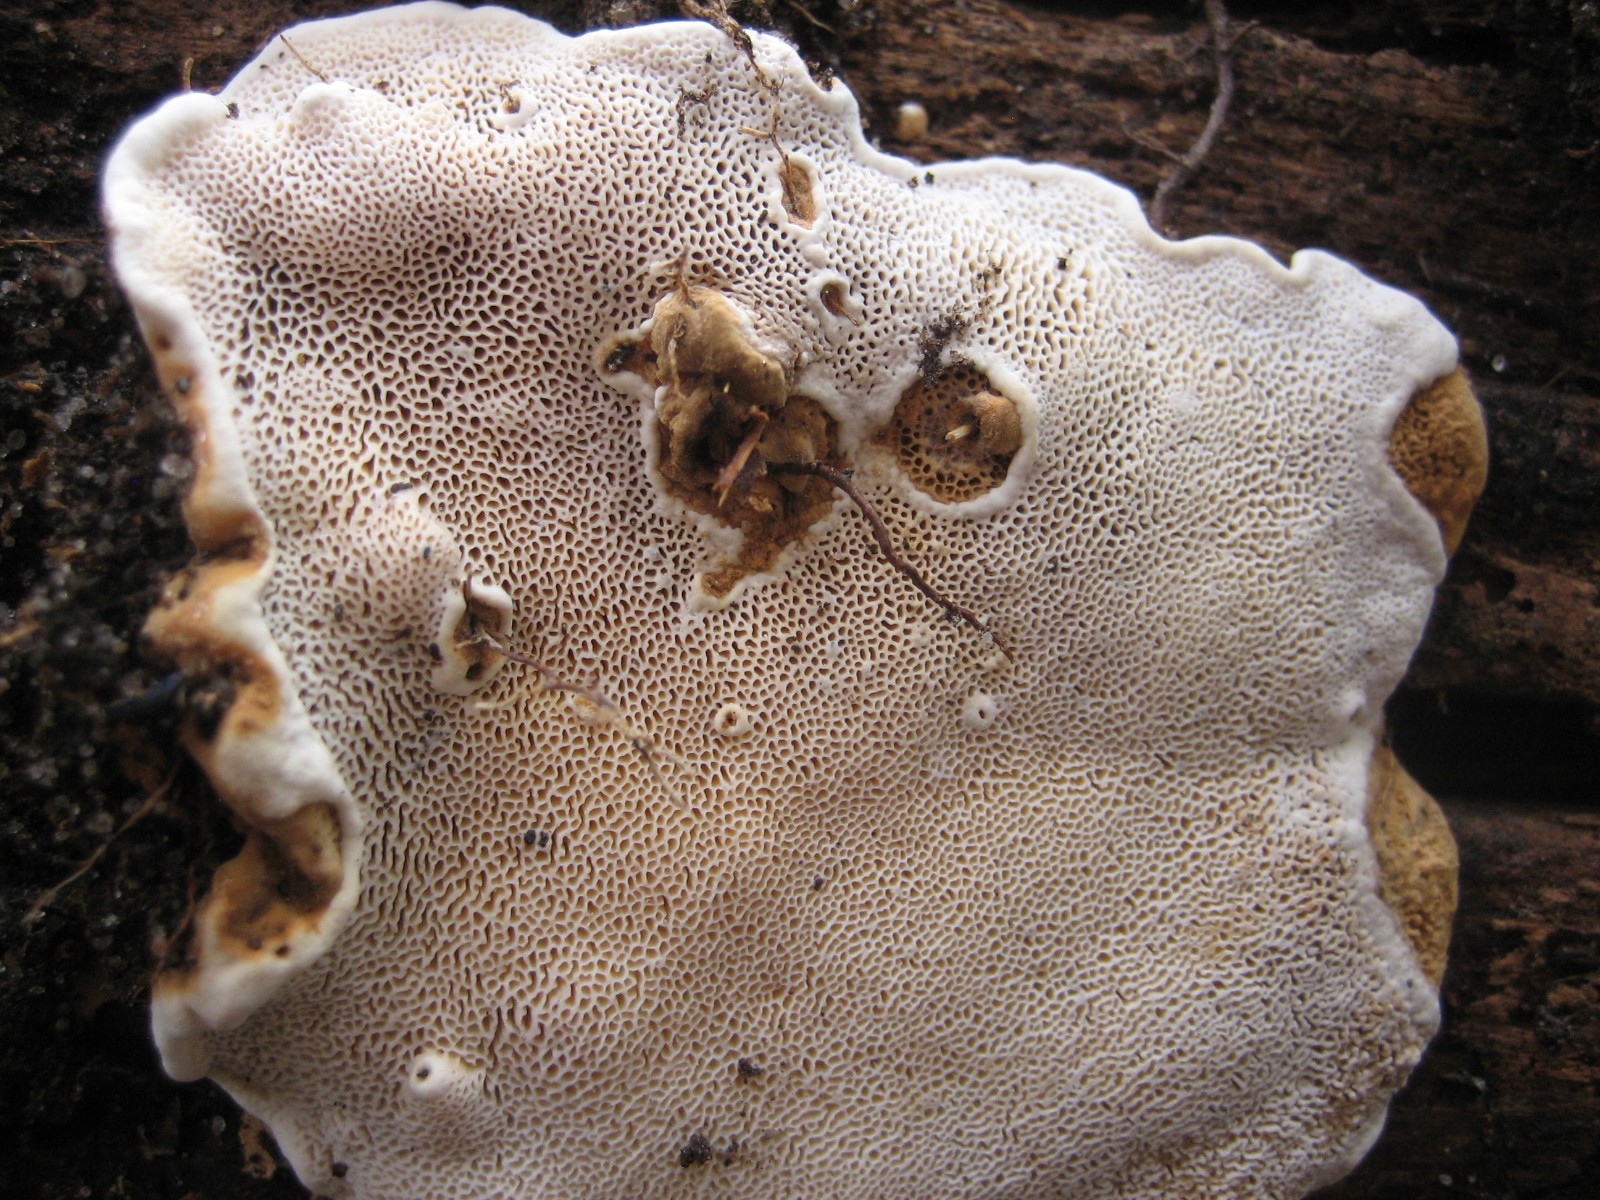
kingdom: Fungi
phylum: Basidiomycota
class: Agaricomycetes
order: Russulales
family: Bondarzewiaceae
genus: Heterobasidion
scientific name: Heterobasidion annosum
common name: almindelig rodfordærver
